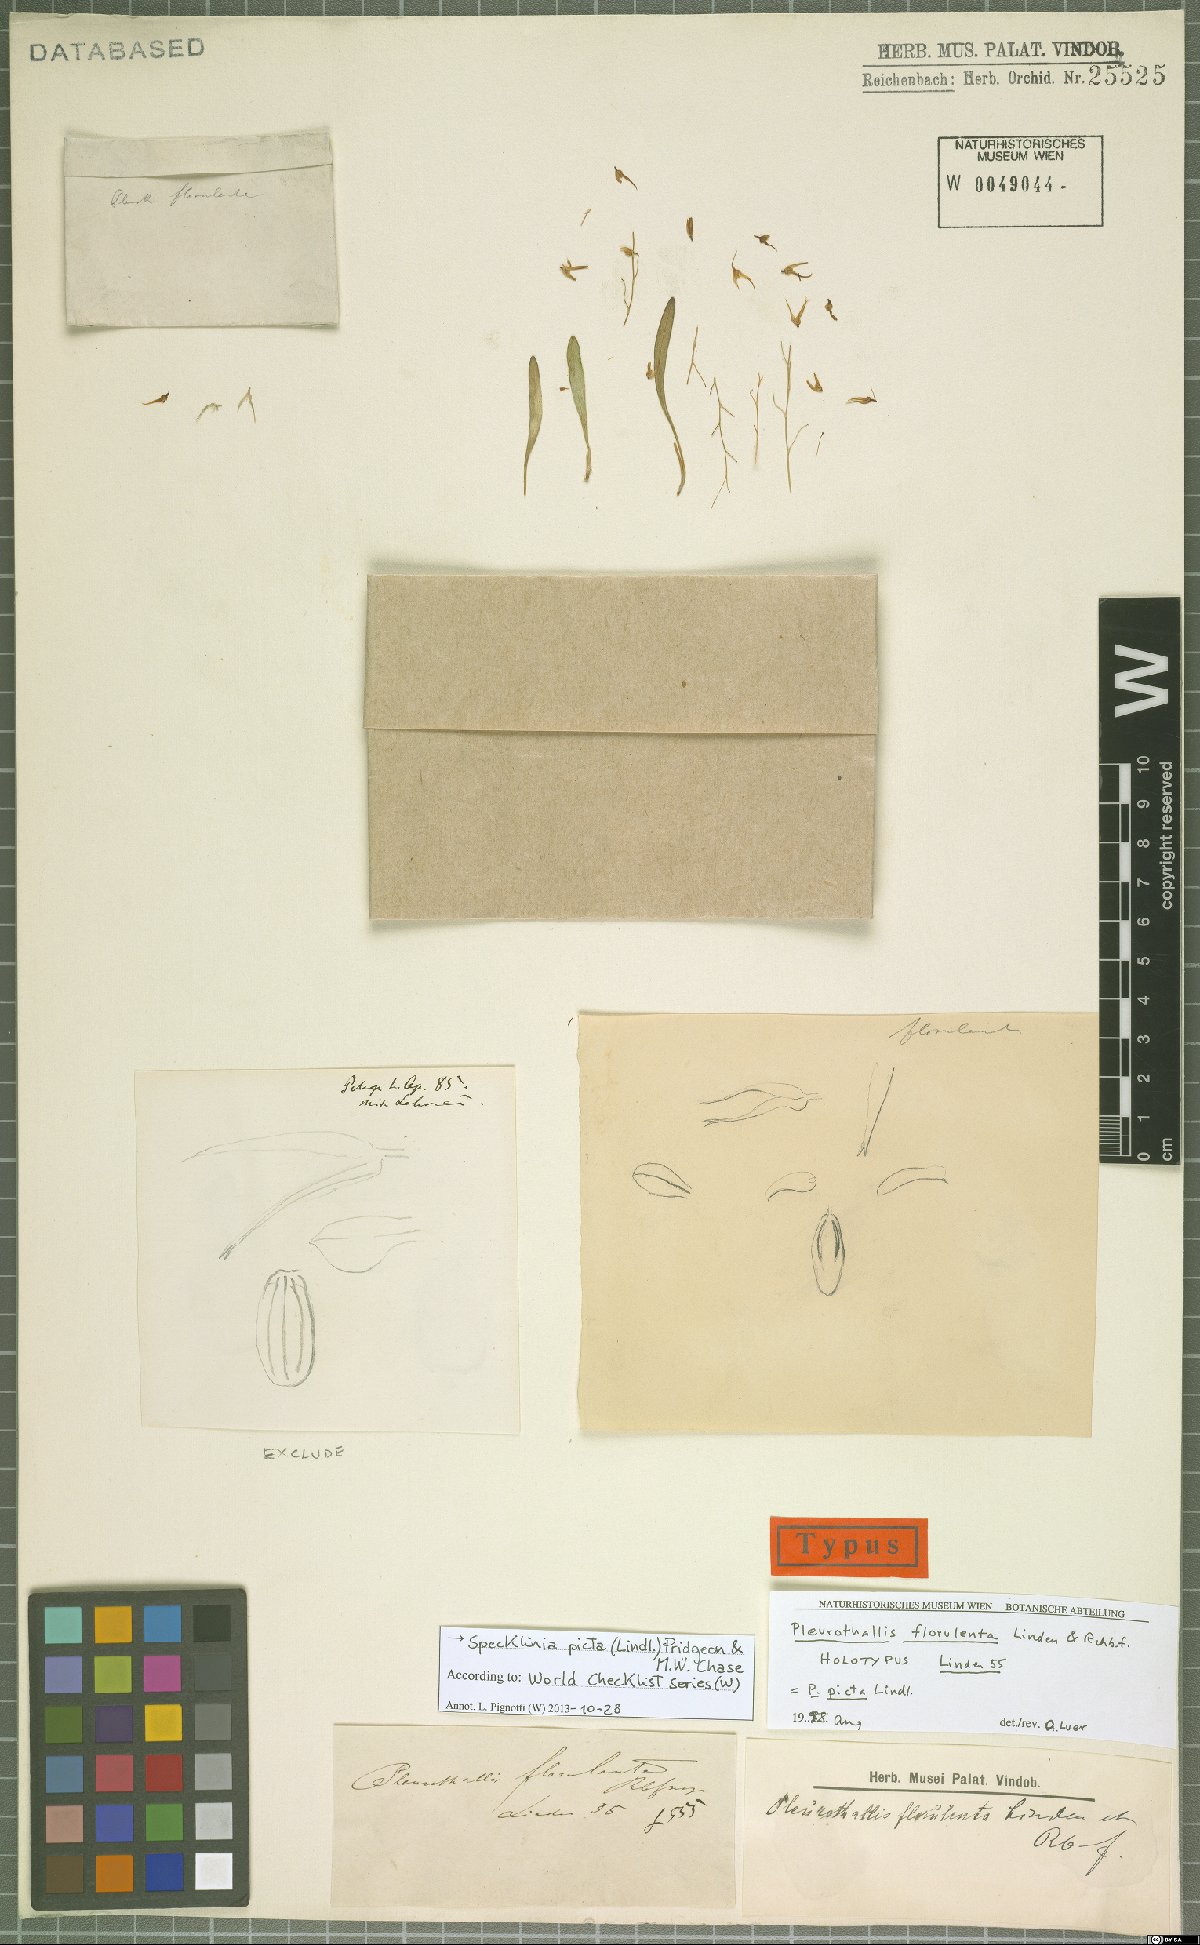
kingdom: Plantae
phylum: Tracheophyta
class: Liliopsida
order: Asparagales
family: Orchidaceae
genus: Specklinia
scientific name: Specklinia picta
